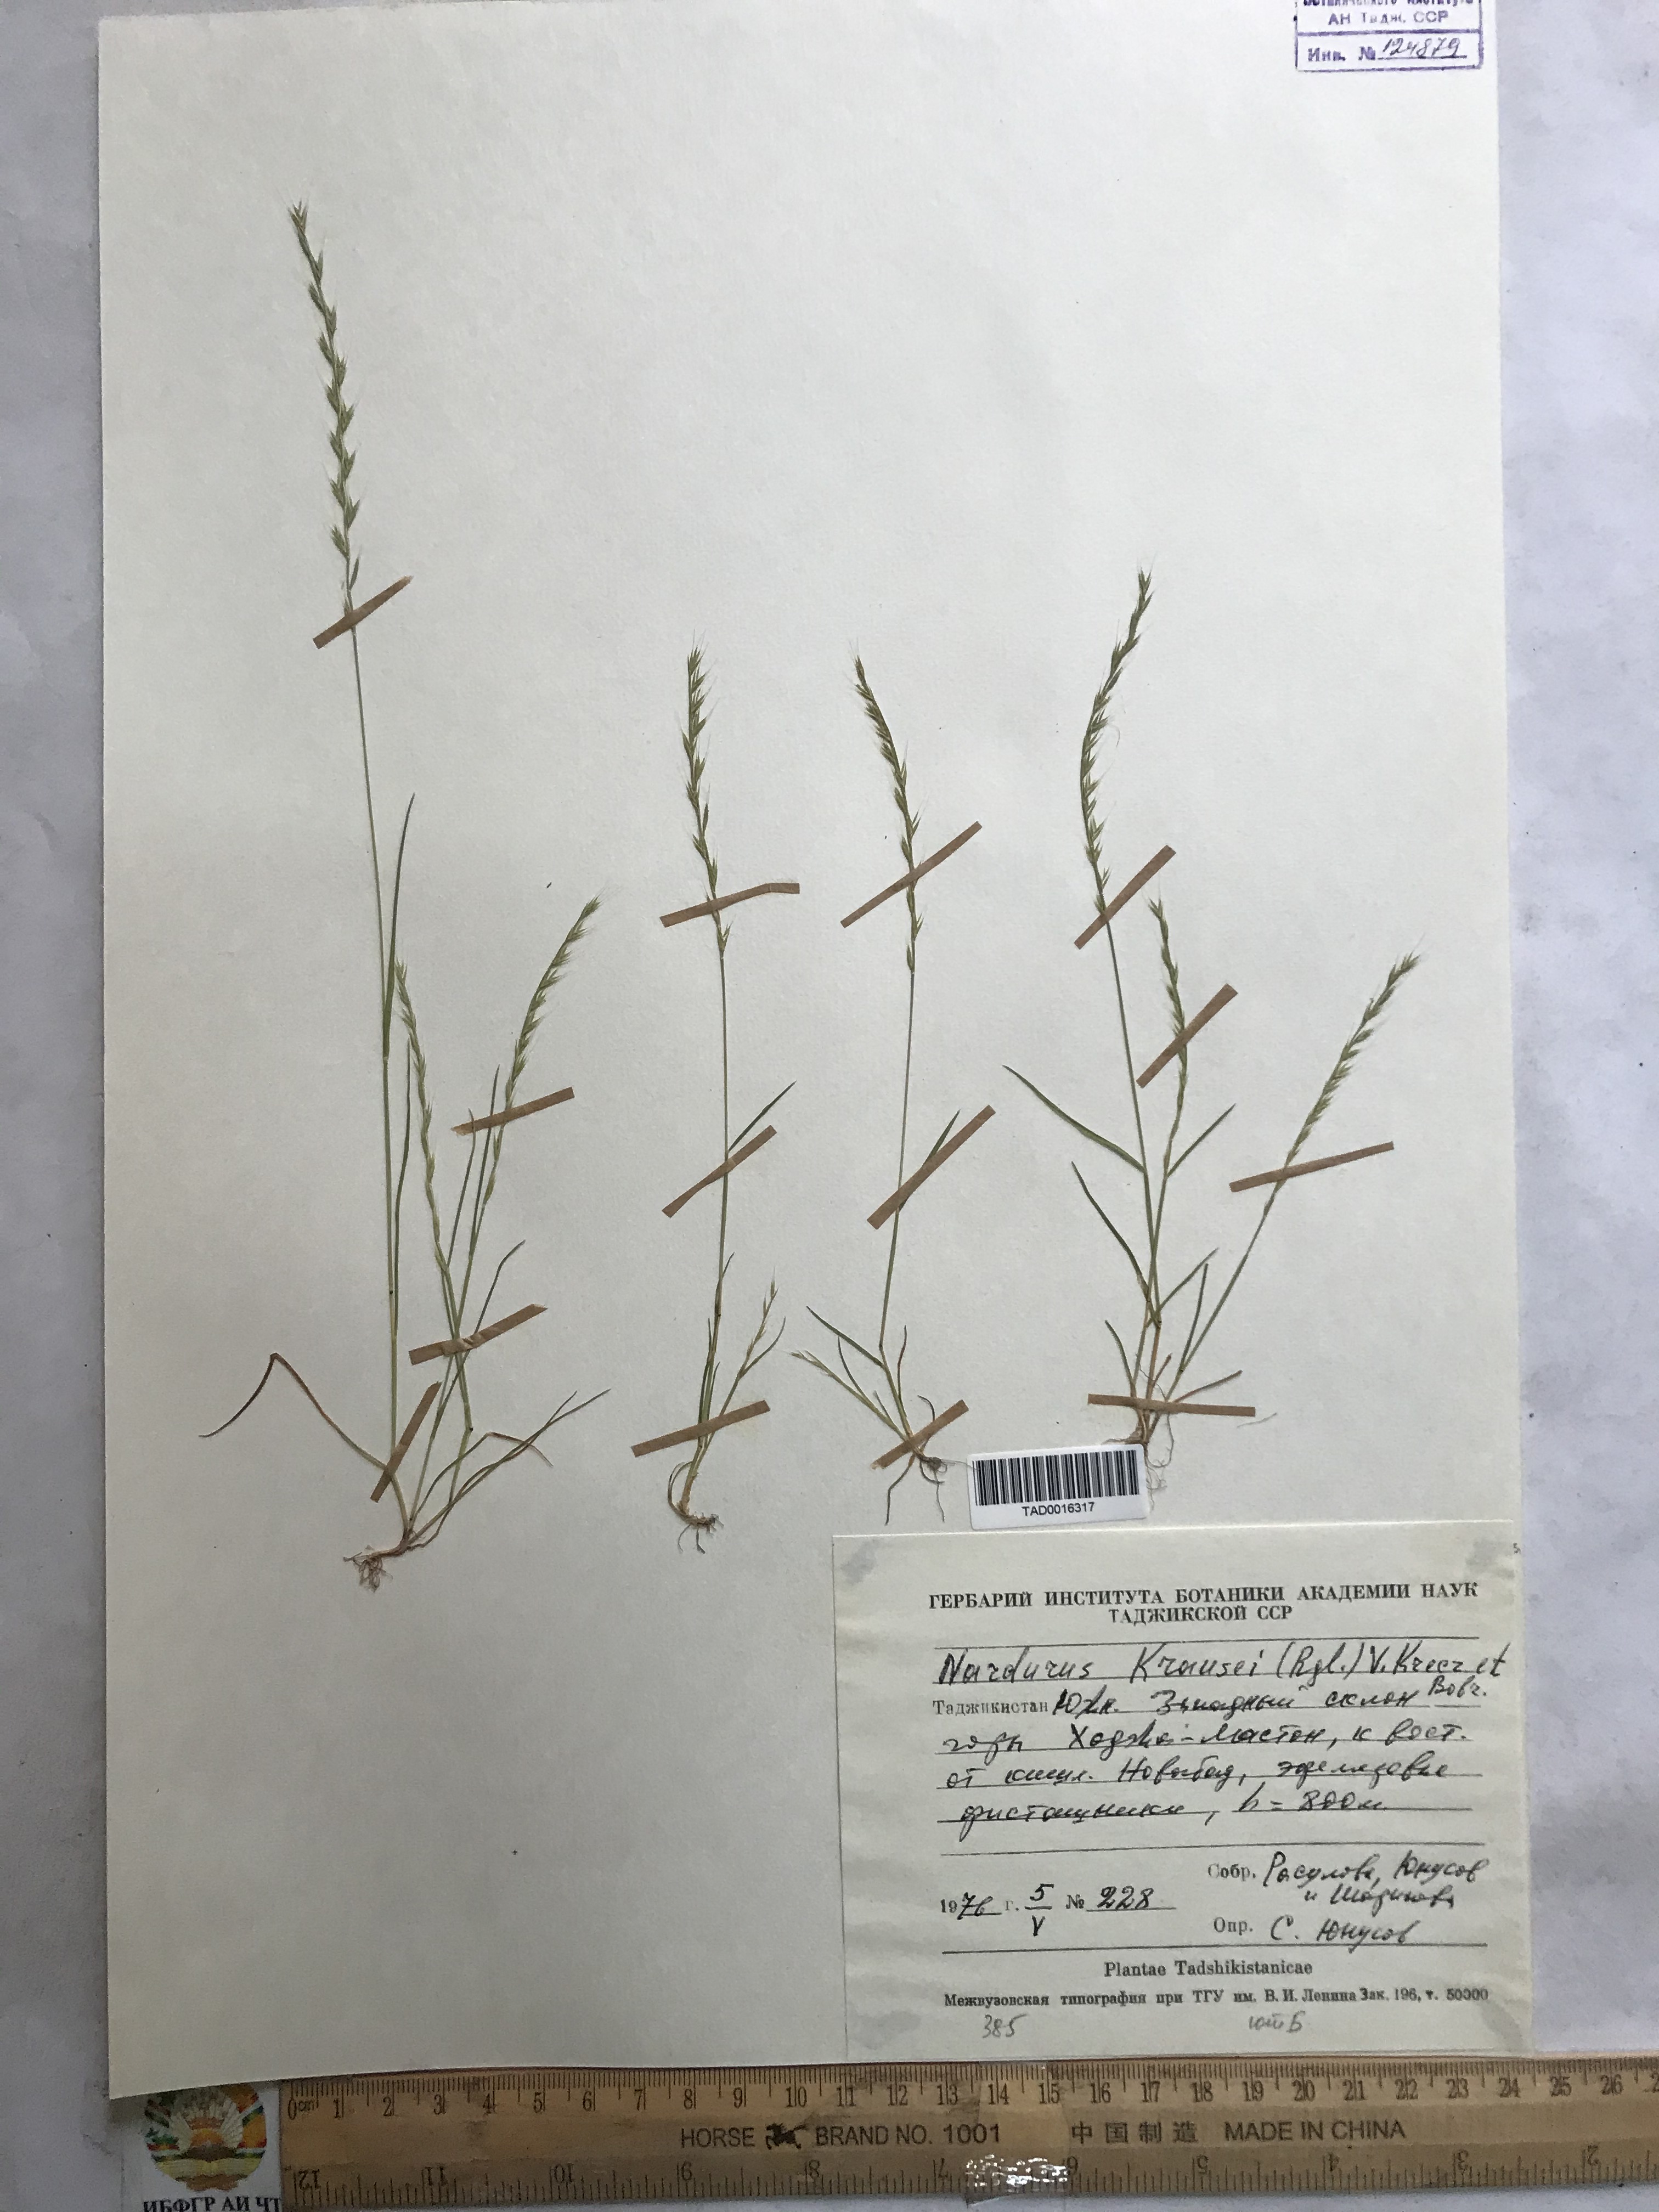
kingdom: Plantae
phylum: Tracheophyta
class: Liliopsida
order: Poales
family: Poaceae
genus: Festuca
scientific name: Festuca maritima
